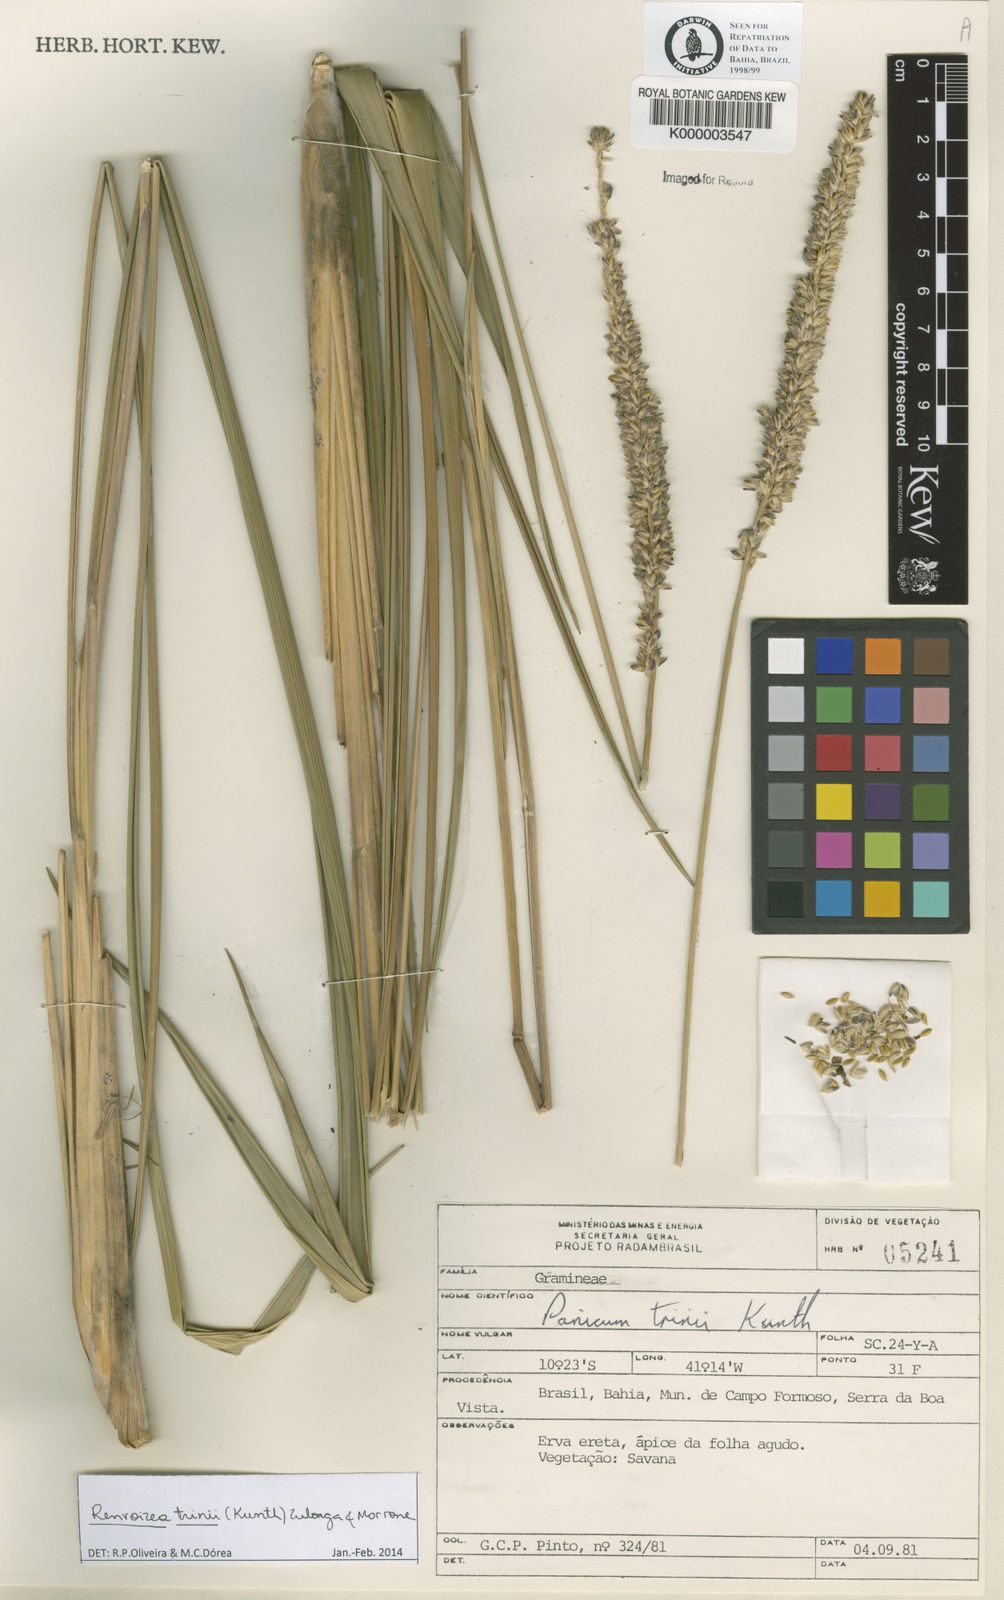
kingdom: Plantae
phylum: Tracheophyta
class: Liliopsida
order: Poales
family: Poaceae
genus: Renvoizea
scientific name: Renvoizea trinii
